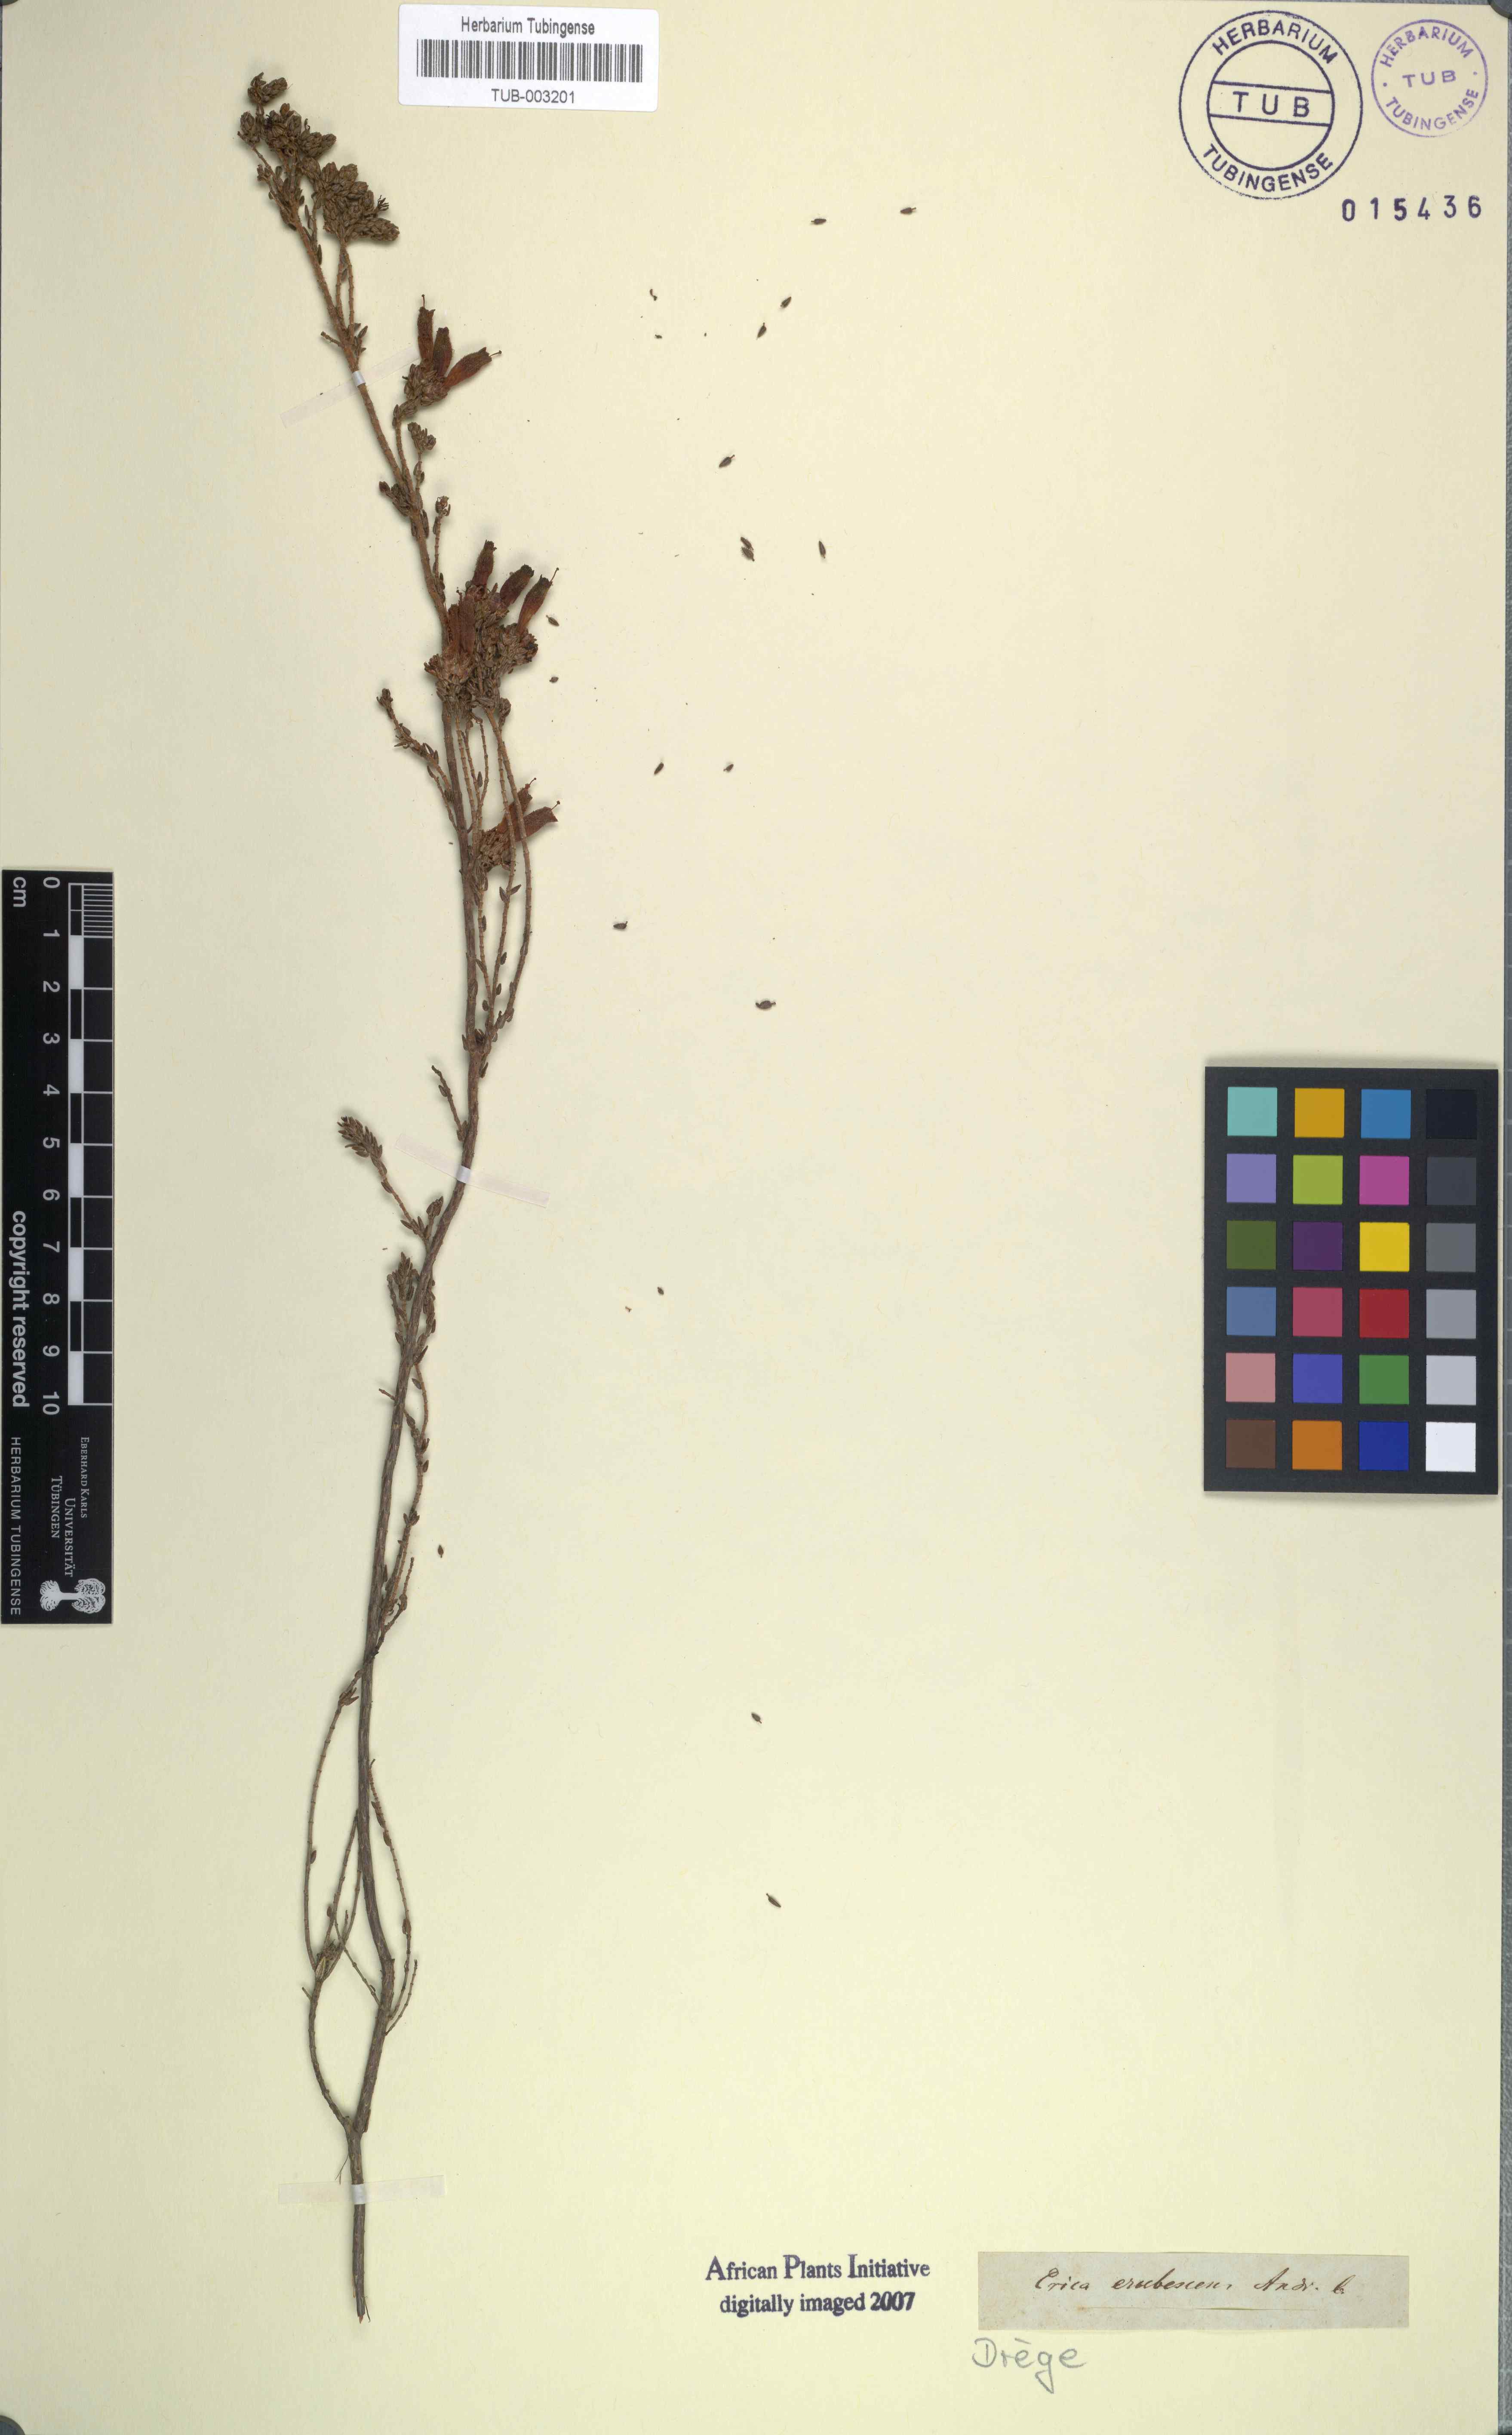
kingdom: Plantae
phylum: Tracheophyta
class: Magnoliopsida
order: Ericales
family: Ericaceae
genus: Erica
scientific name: Erica pectinifolia
